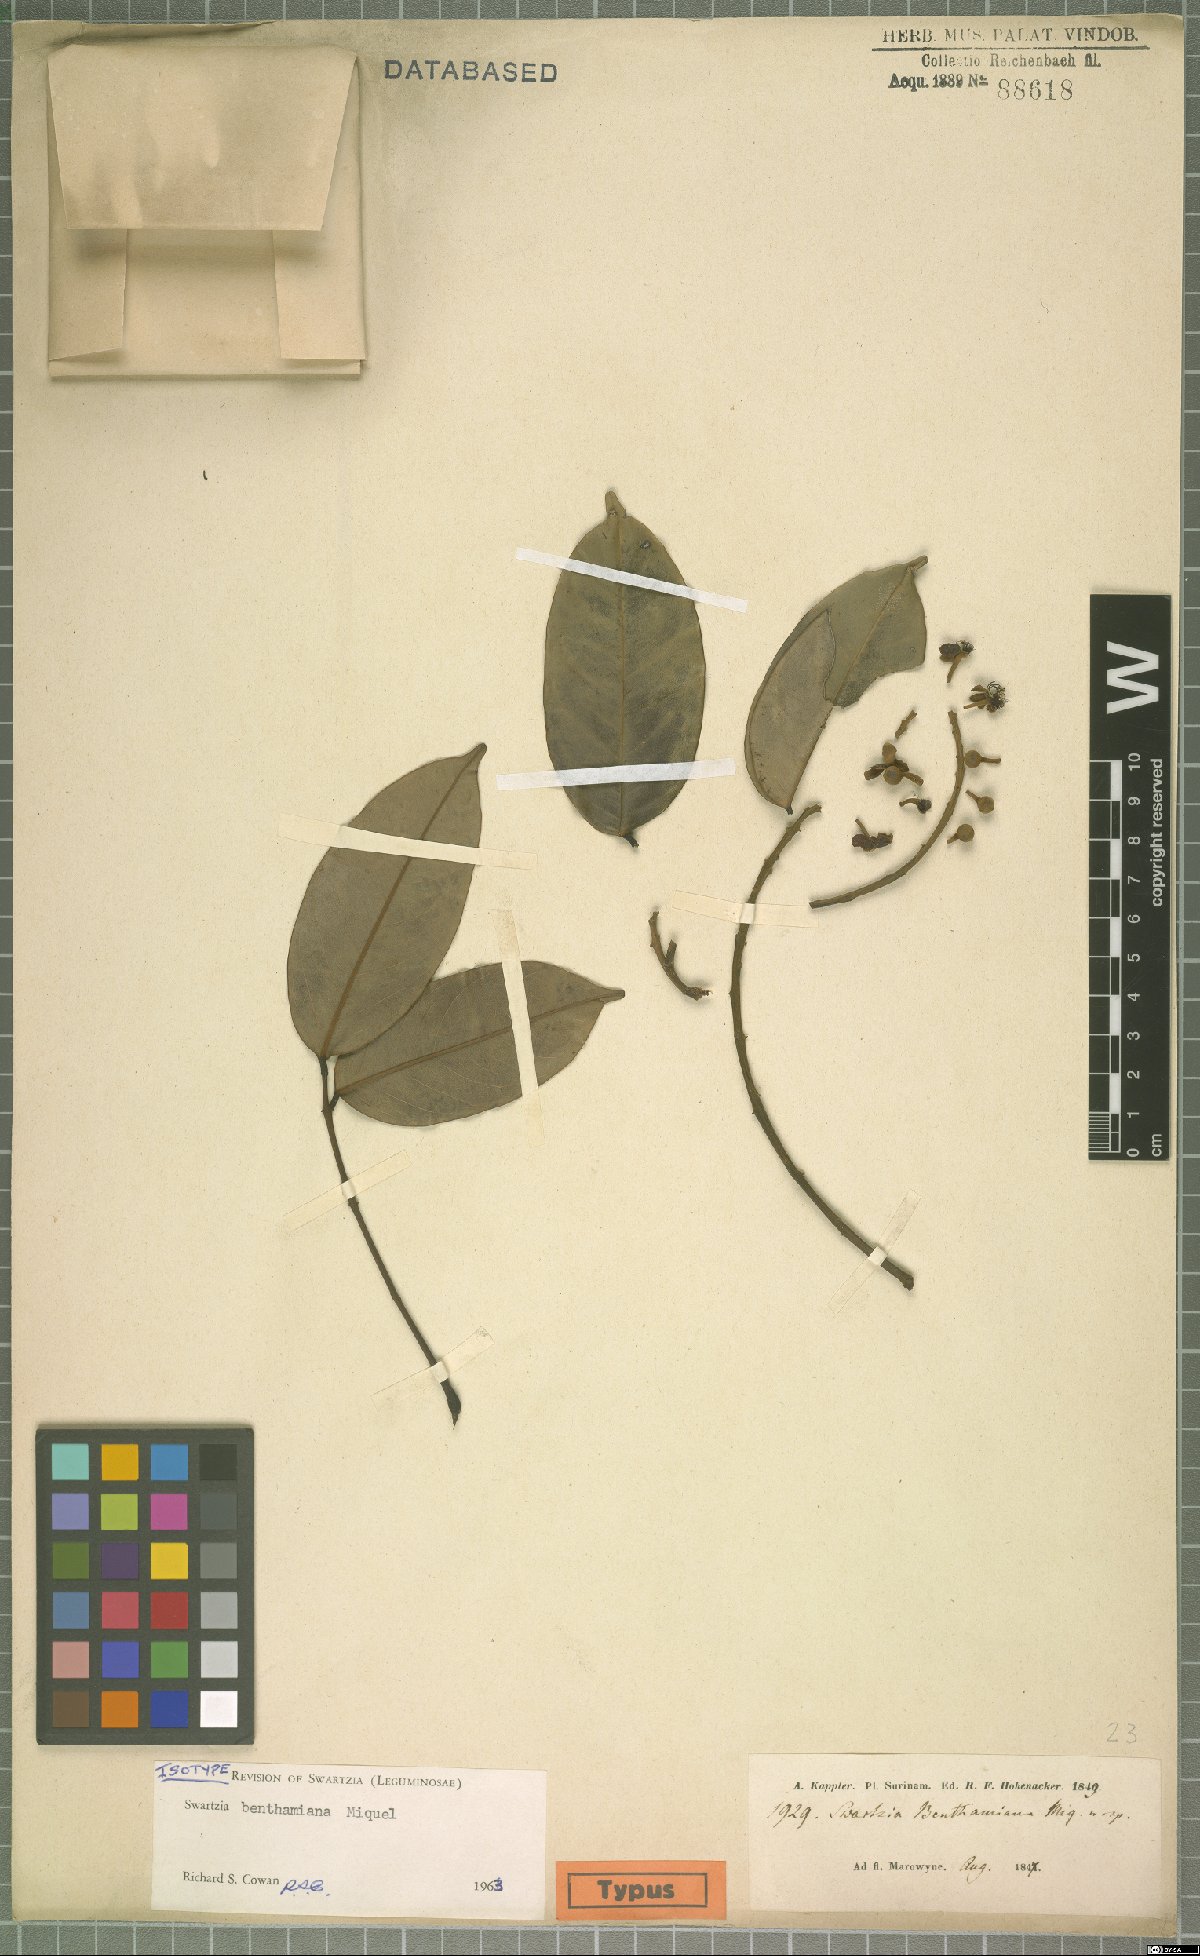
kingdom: Plantae
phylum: Tracheophyta
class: Magnoliopsida
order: Fabales
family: Fabaceae
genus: Swartzia
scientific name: Swartzia benthamiana
